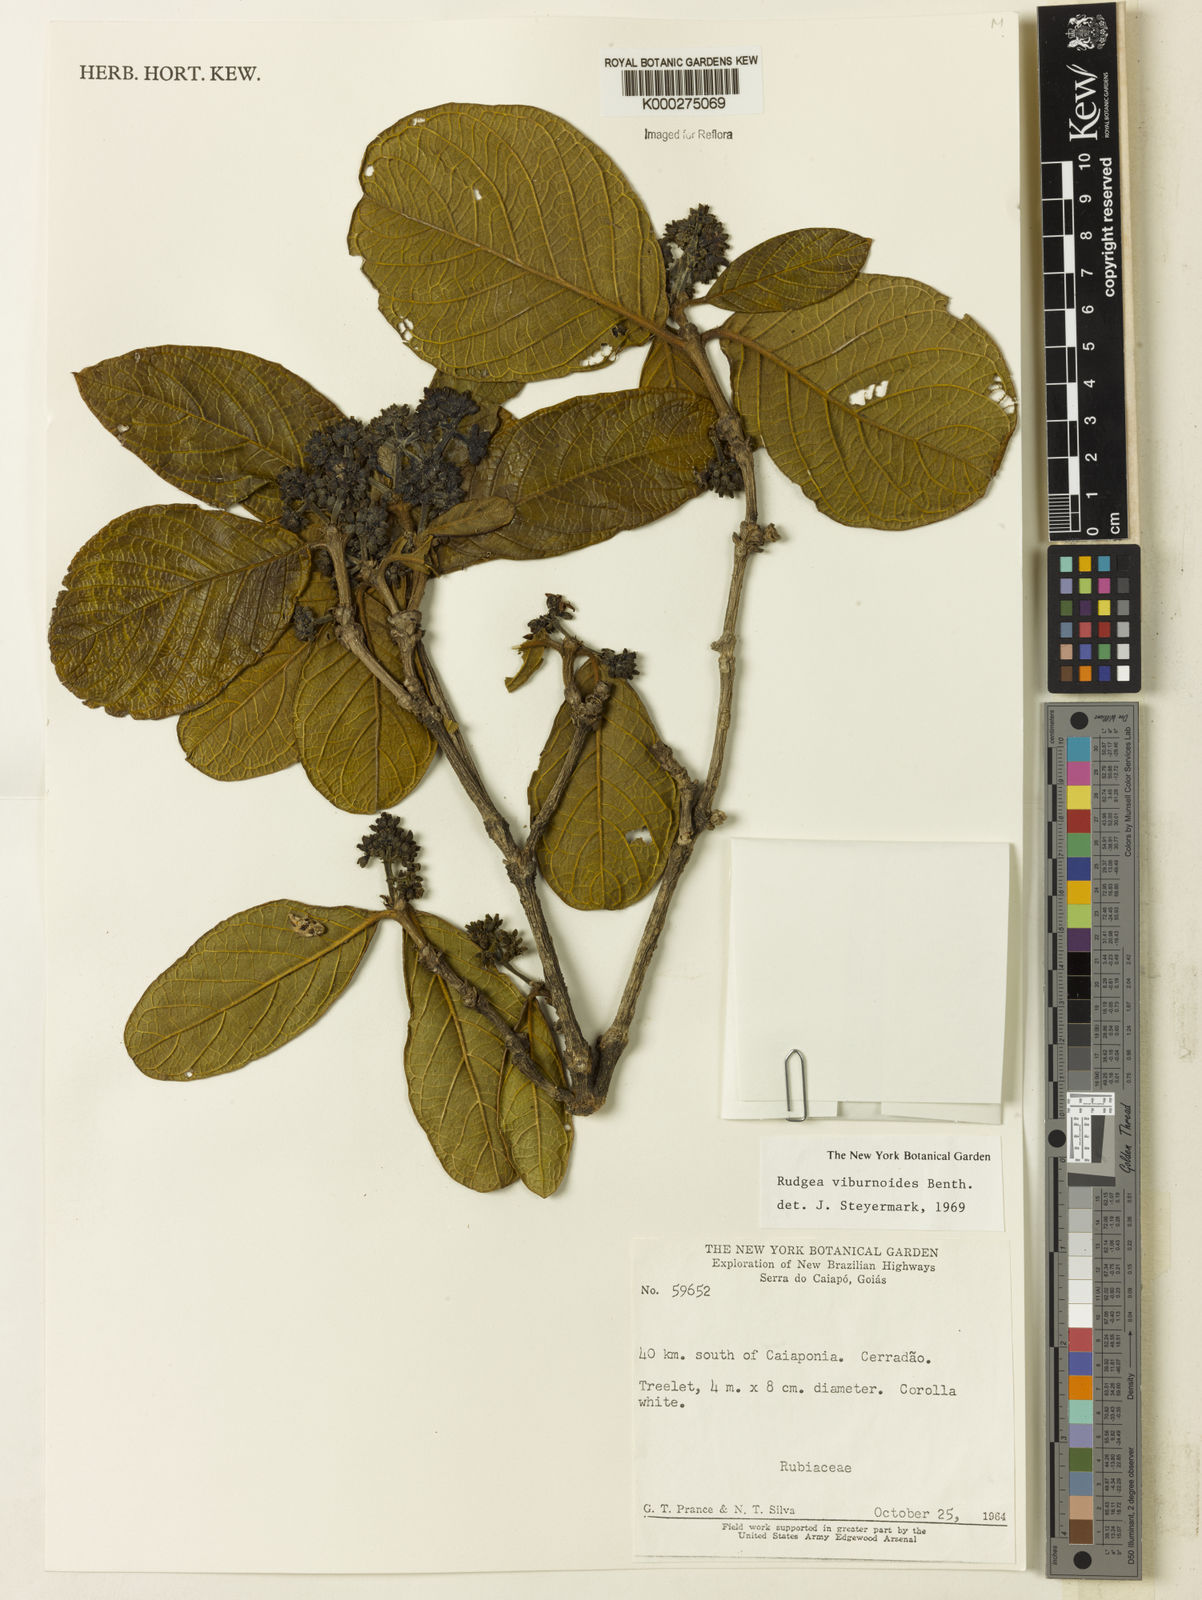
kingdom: Plantae
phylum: Tracheophyta
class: Magnoliopsida
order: Gentianales
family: Rubiaceae
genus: Rudgea
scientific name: Rudgea viburnoides
